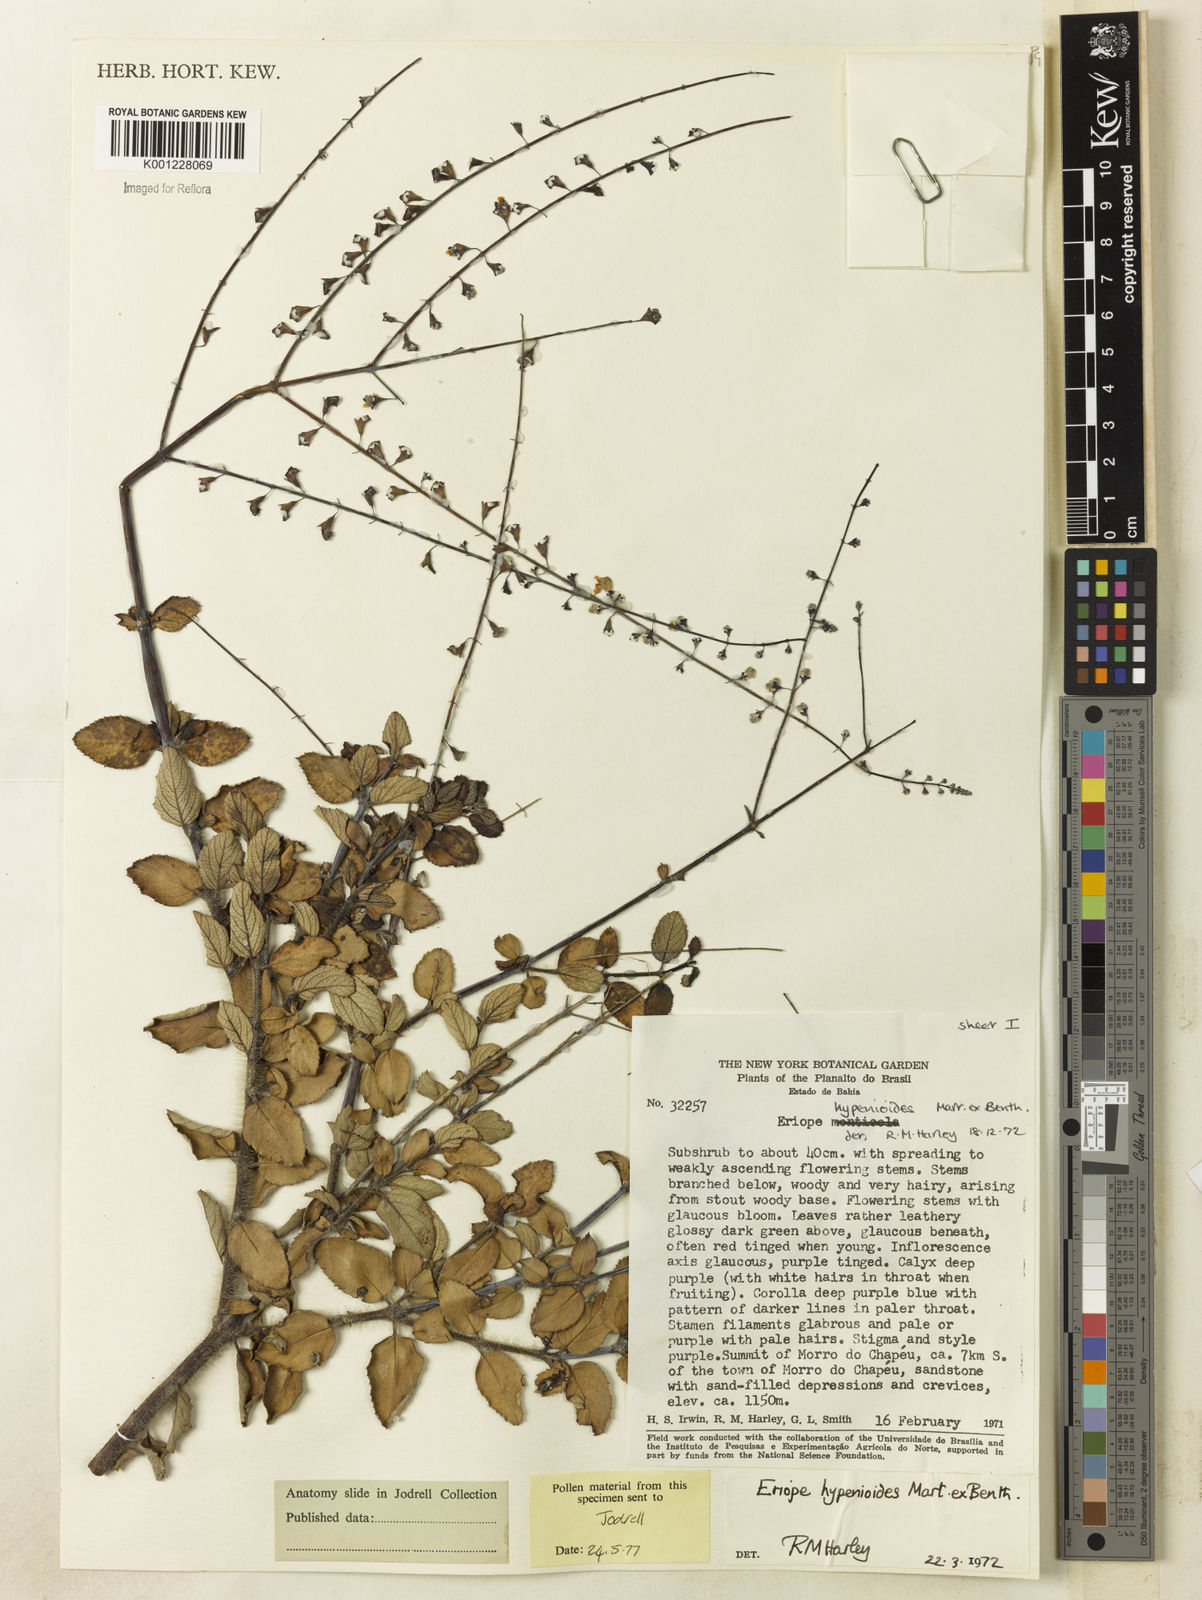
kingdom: Plantae
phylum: Tracheophyta
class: Magnoliopsida
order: Lamiales
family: Lamiaceae
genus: Eriope
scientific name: Eriope hypenioides
